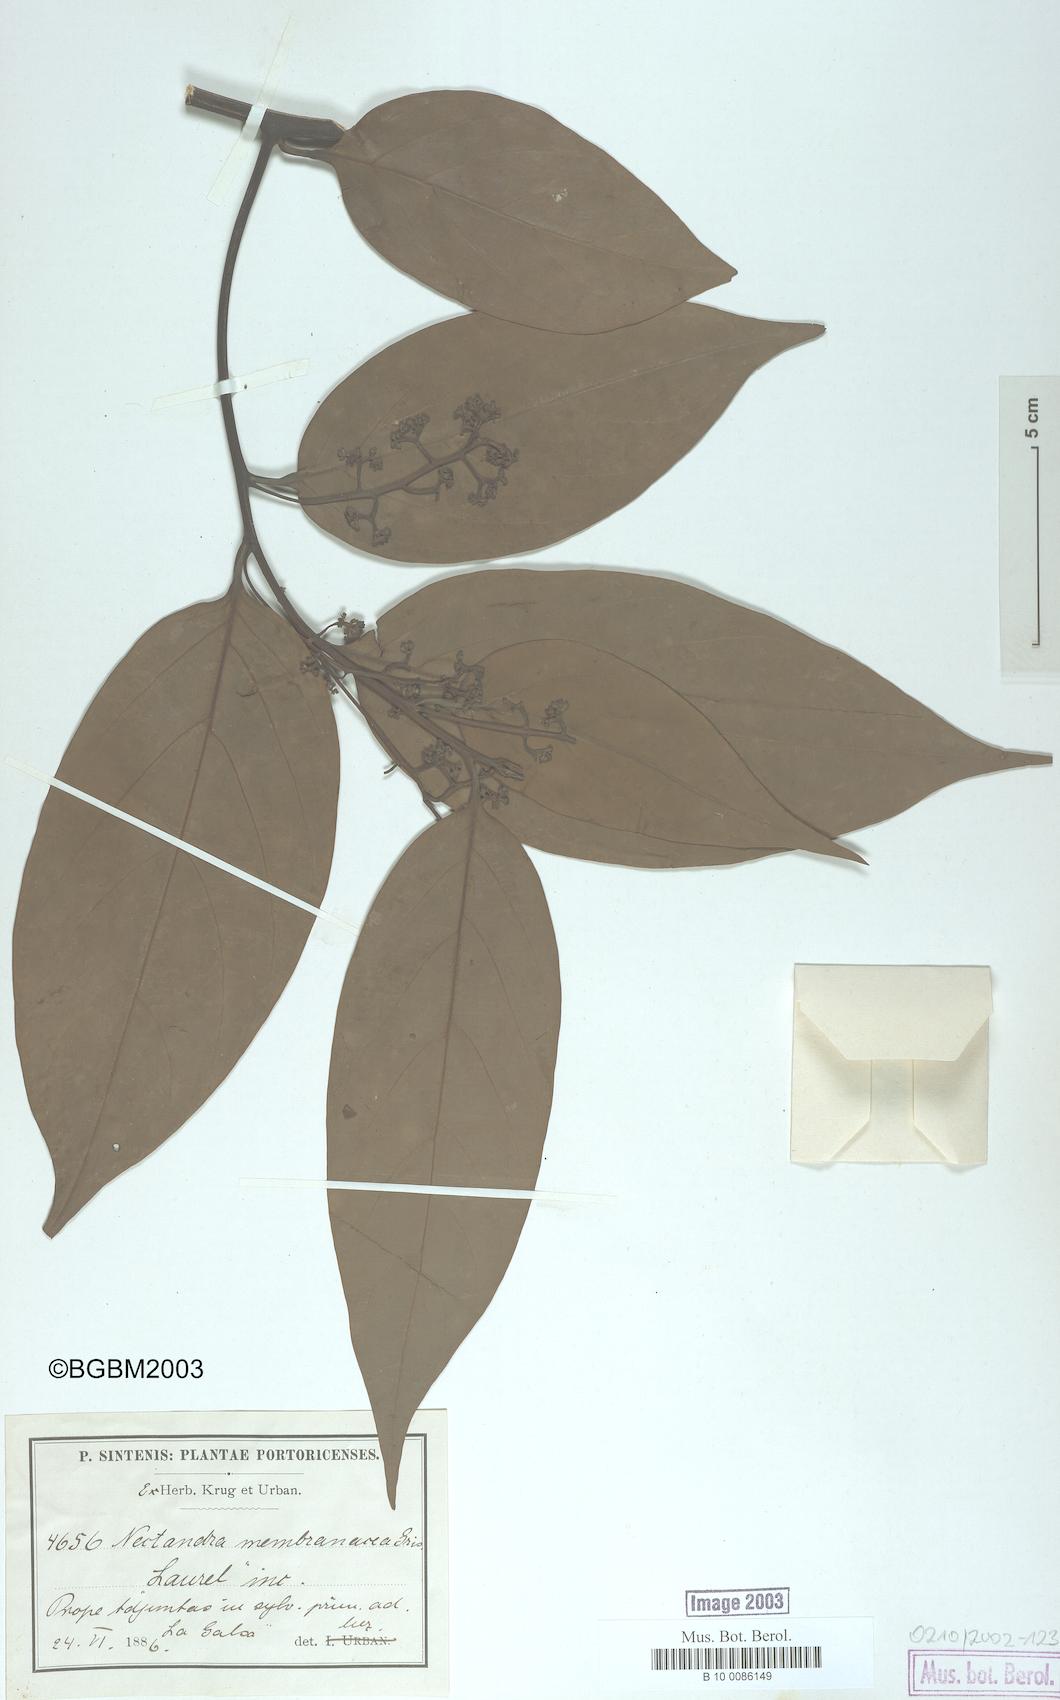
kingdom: Plantae
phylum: Tracheophyta
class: Magnoliopsida
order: Laurales
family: Lauraceae
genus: Nectandra
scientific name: Nectandra membranacea
